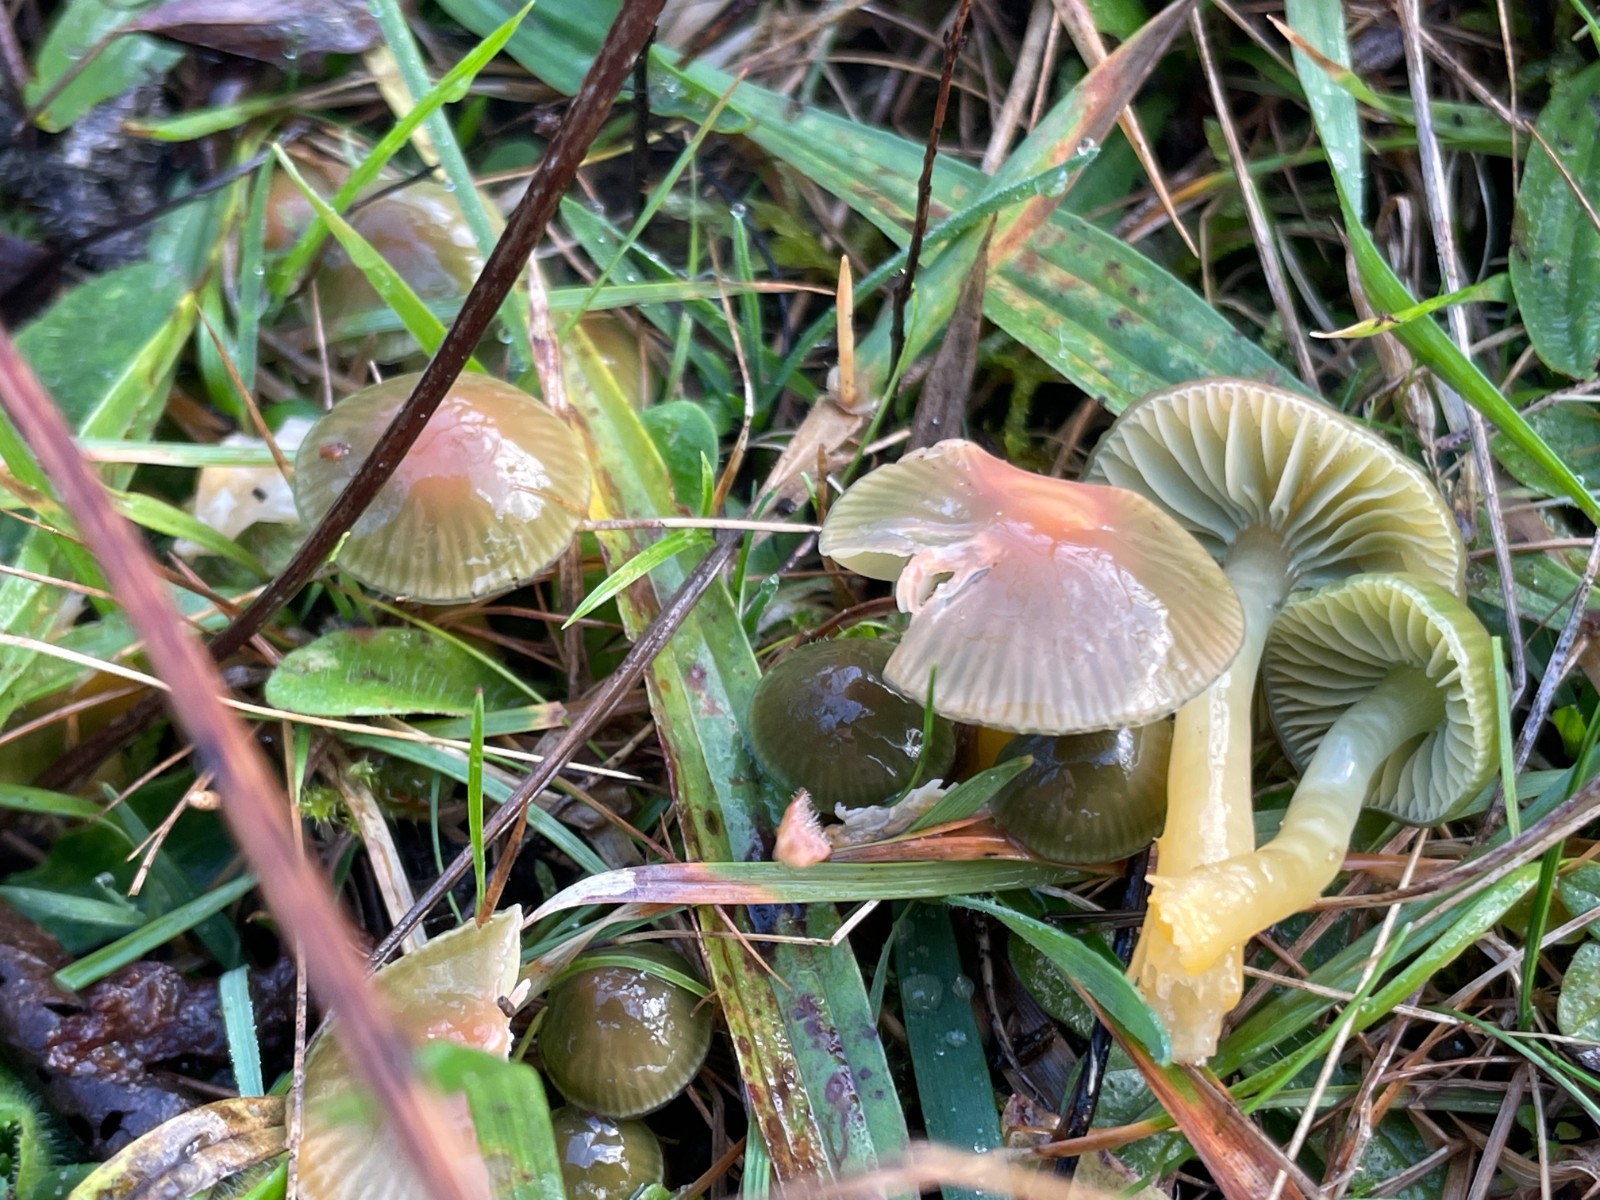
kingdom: Fungi
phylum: Basidiomycota
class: Agaricomycetes
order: Agaricales
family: Hygrophoraceae
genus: Gliophorus
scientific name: Gliophorus psittacinus
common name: papegøje-vokshat
